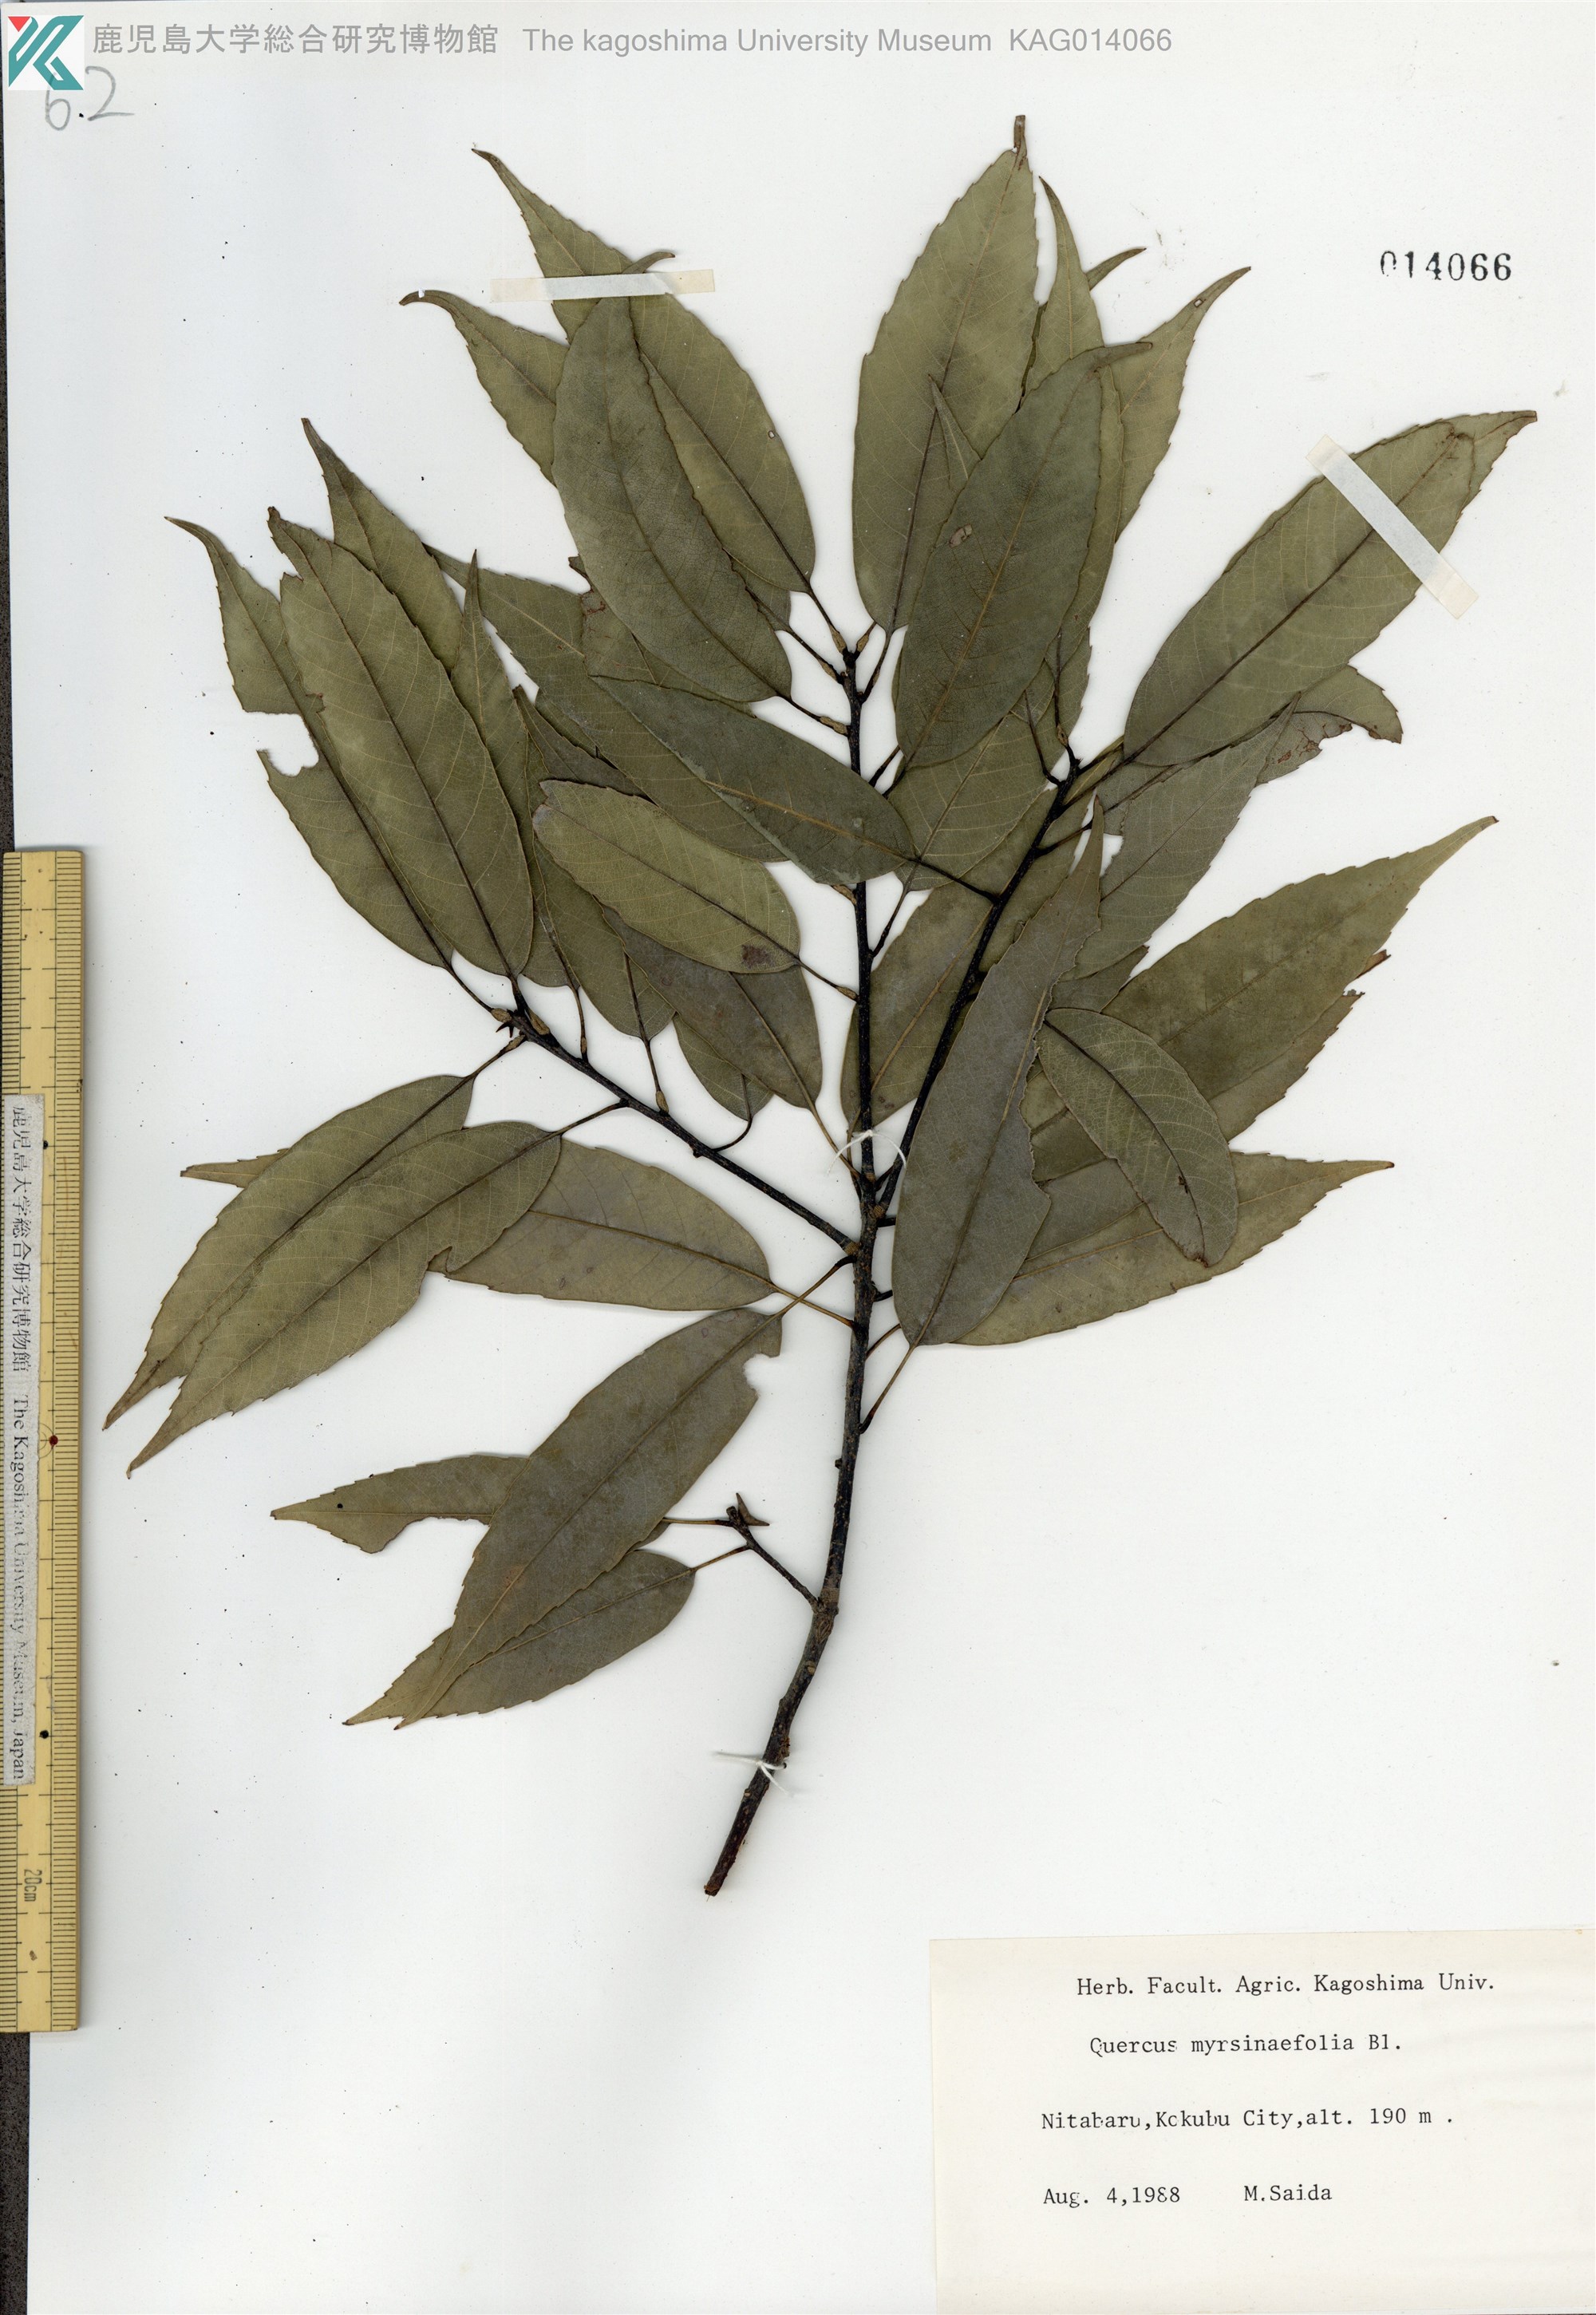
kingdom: Plantae
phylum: Tracheophyta
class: Magnoliopsida
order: Fagales
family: Fagaceae
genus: Quercus
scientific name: Quercus myrsinaefolia
